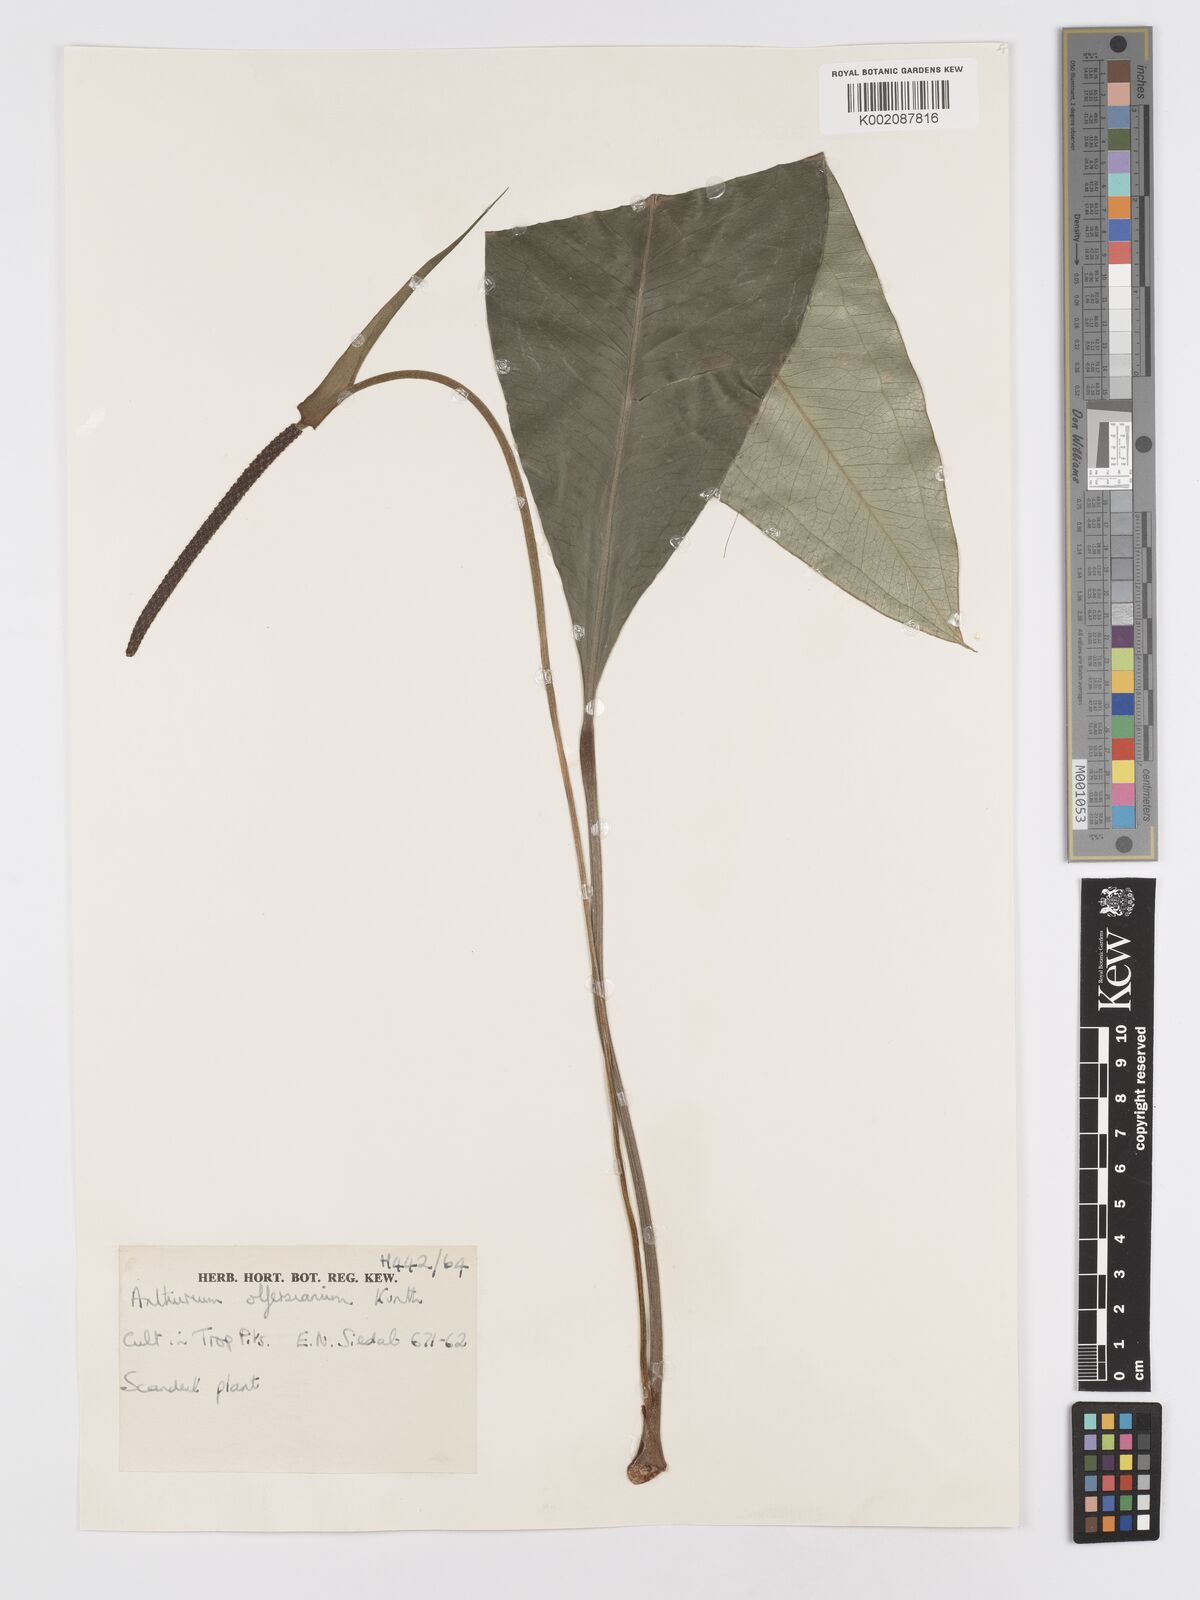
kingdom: Plantae
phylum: Tracheophyta
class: Liliopsida
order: Alismatales
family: Araceae
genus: Anthurium
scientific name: Anthurium parasiticum
